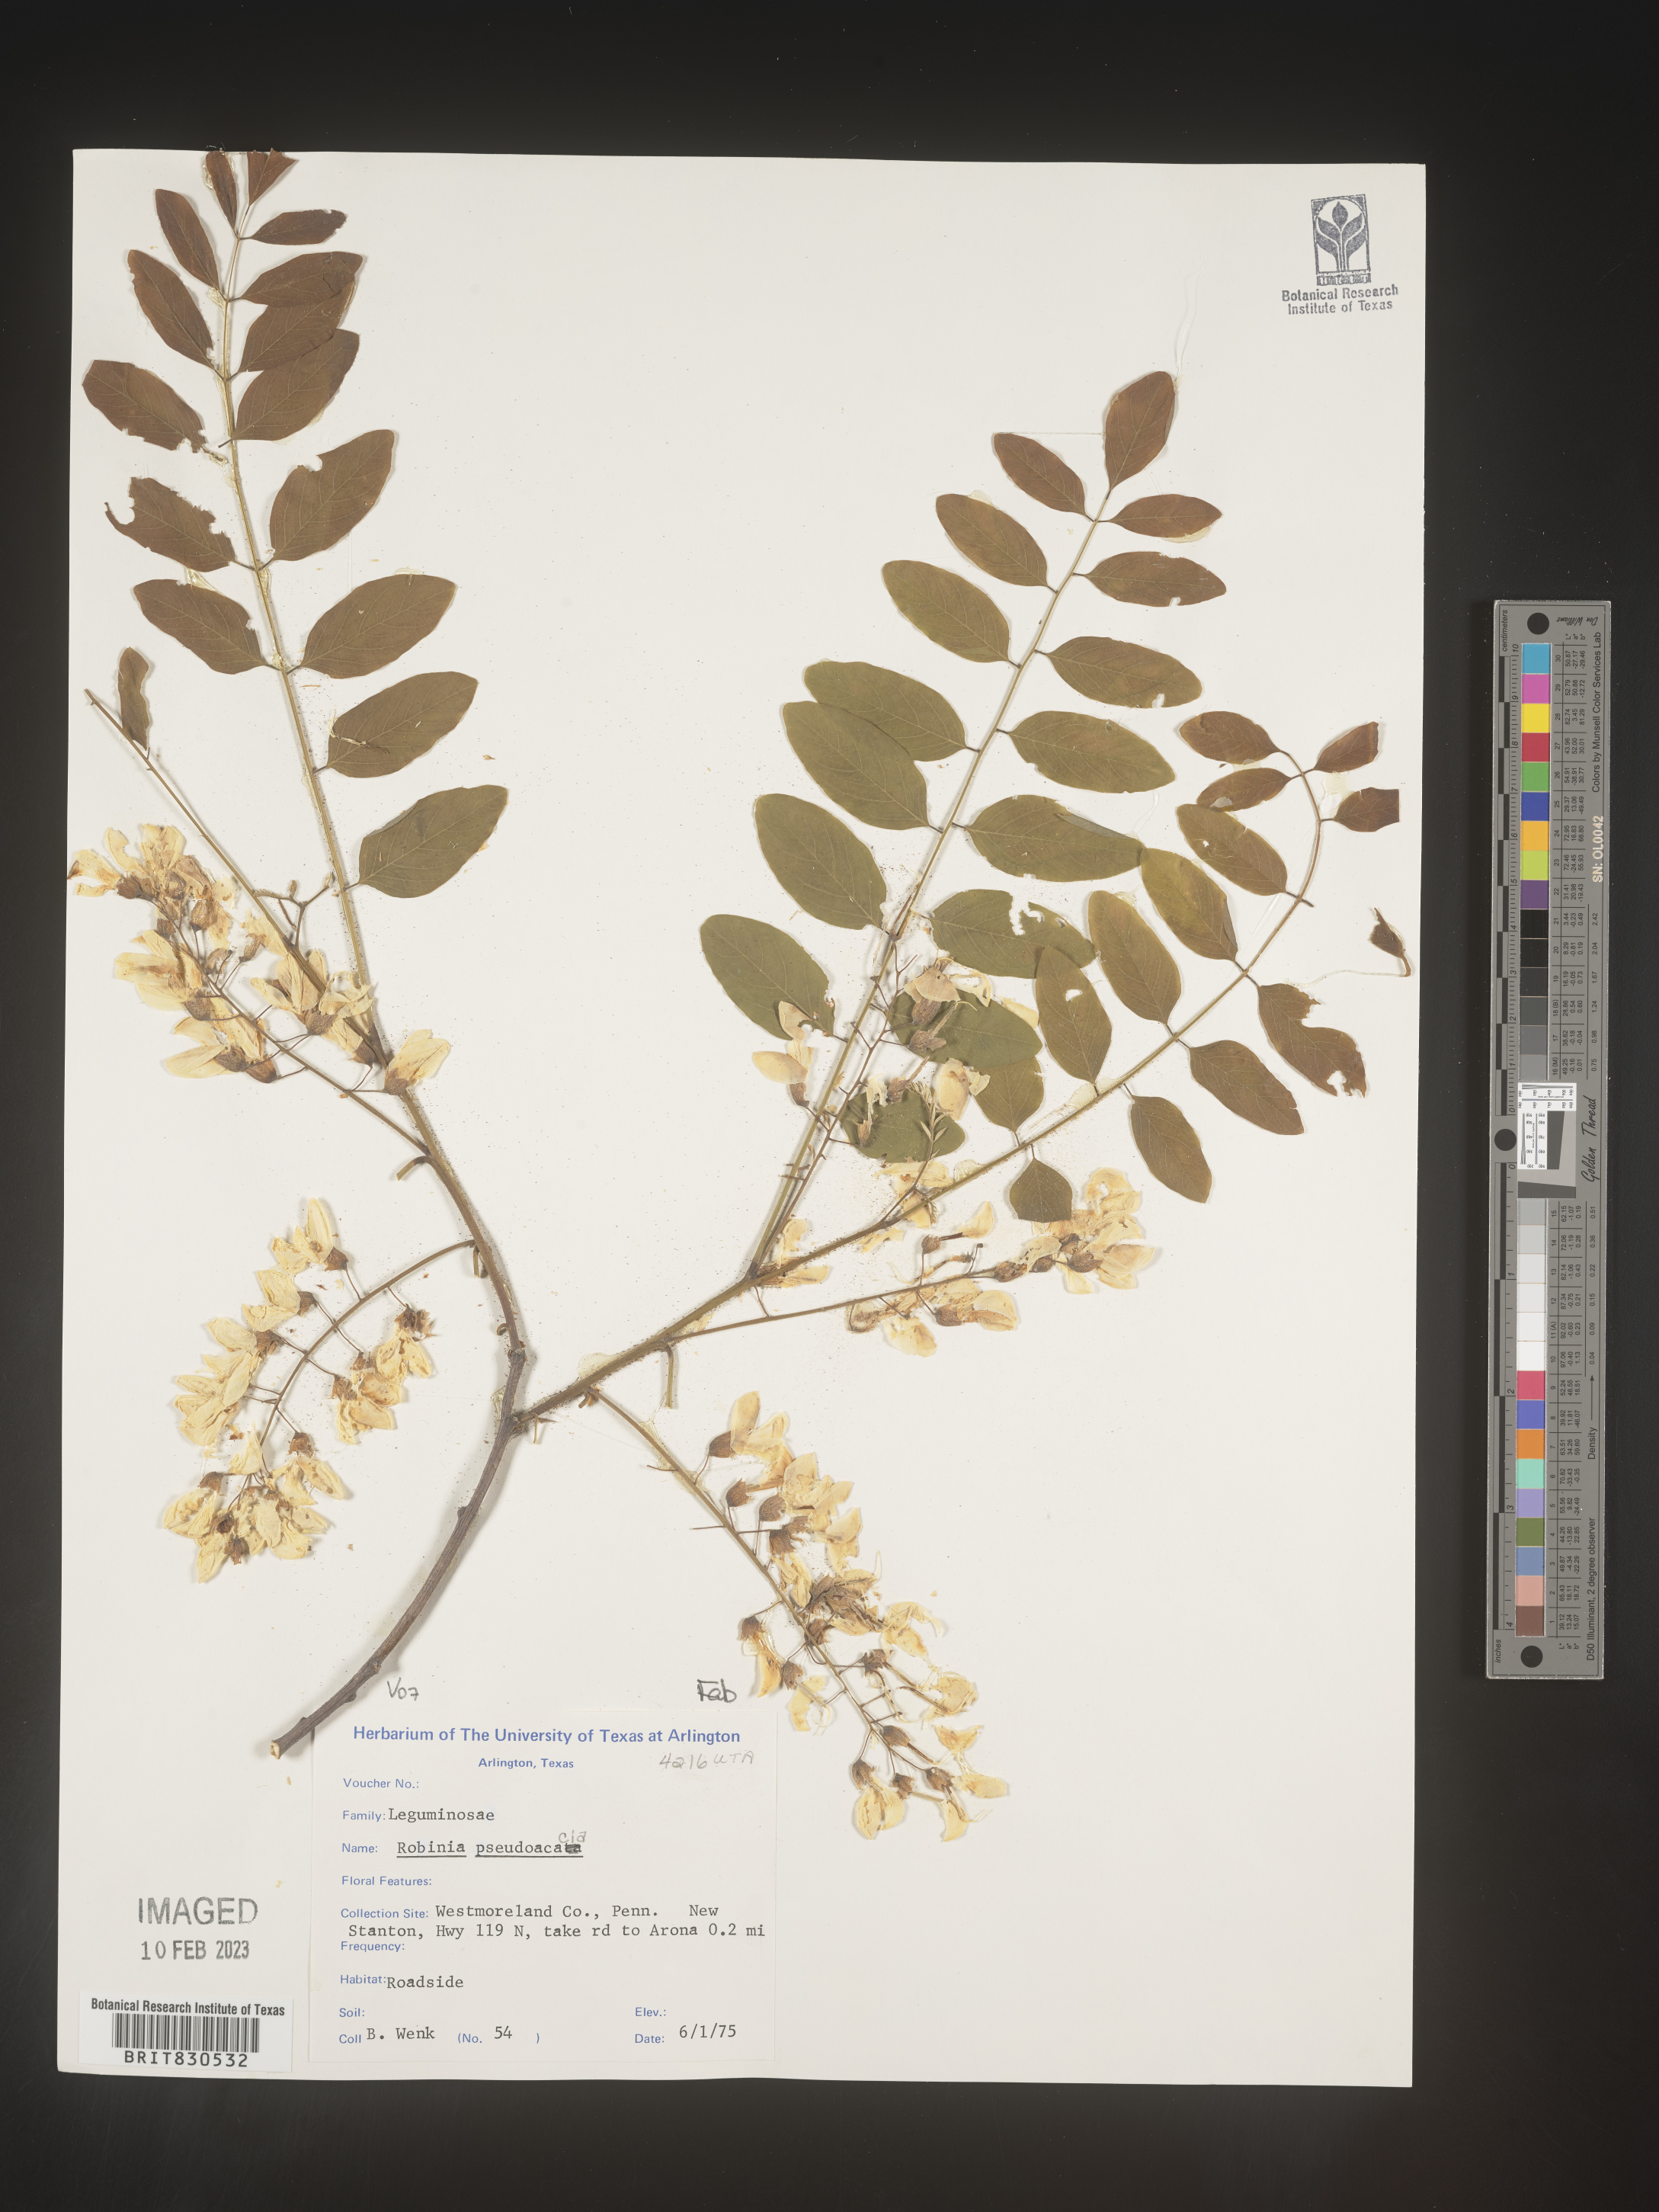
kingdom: Plantae
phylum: Tracheophyta
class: Magnoliopsida
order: Fabales
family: Fabaceae
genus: Robinia
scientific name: Robinia pseudoacacia
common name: Black locust
